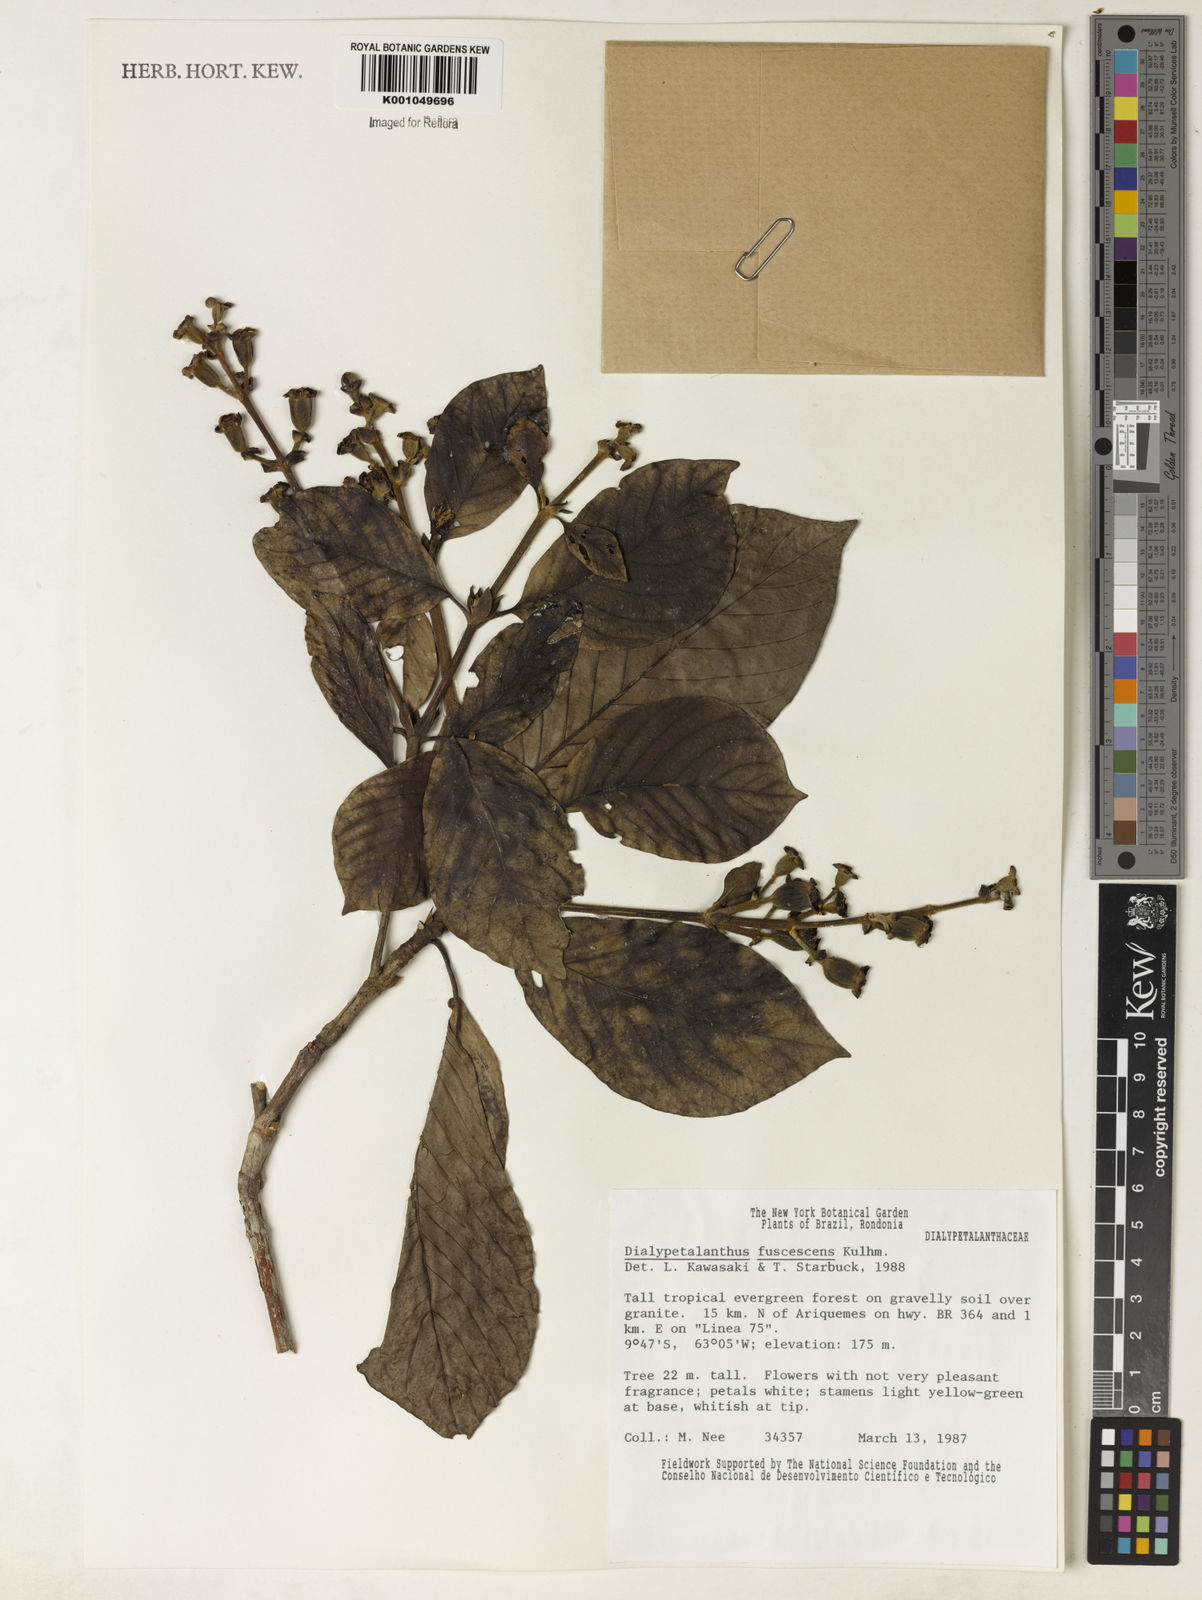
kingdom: Plantae
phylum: Tracheophyta
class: Magnoliopsida
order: Gentianales
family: Rubiaceae
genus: Dialypetalanthus
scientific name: Dialypetalanthus fuscescens
